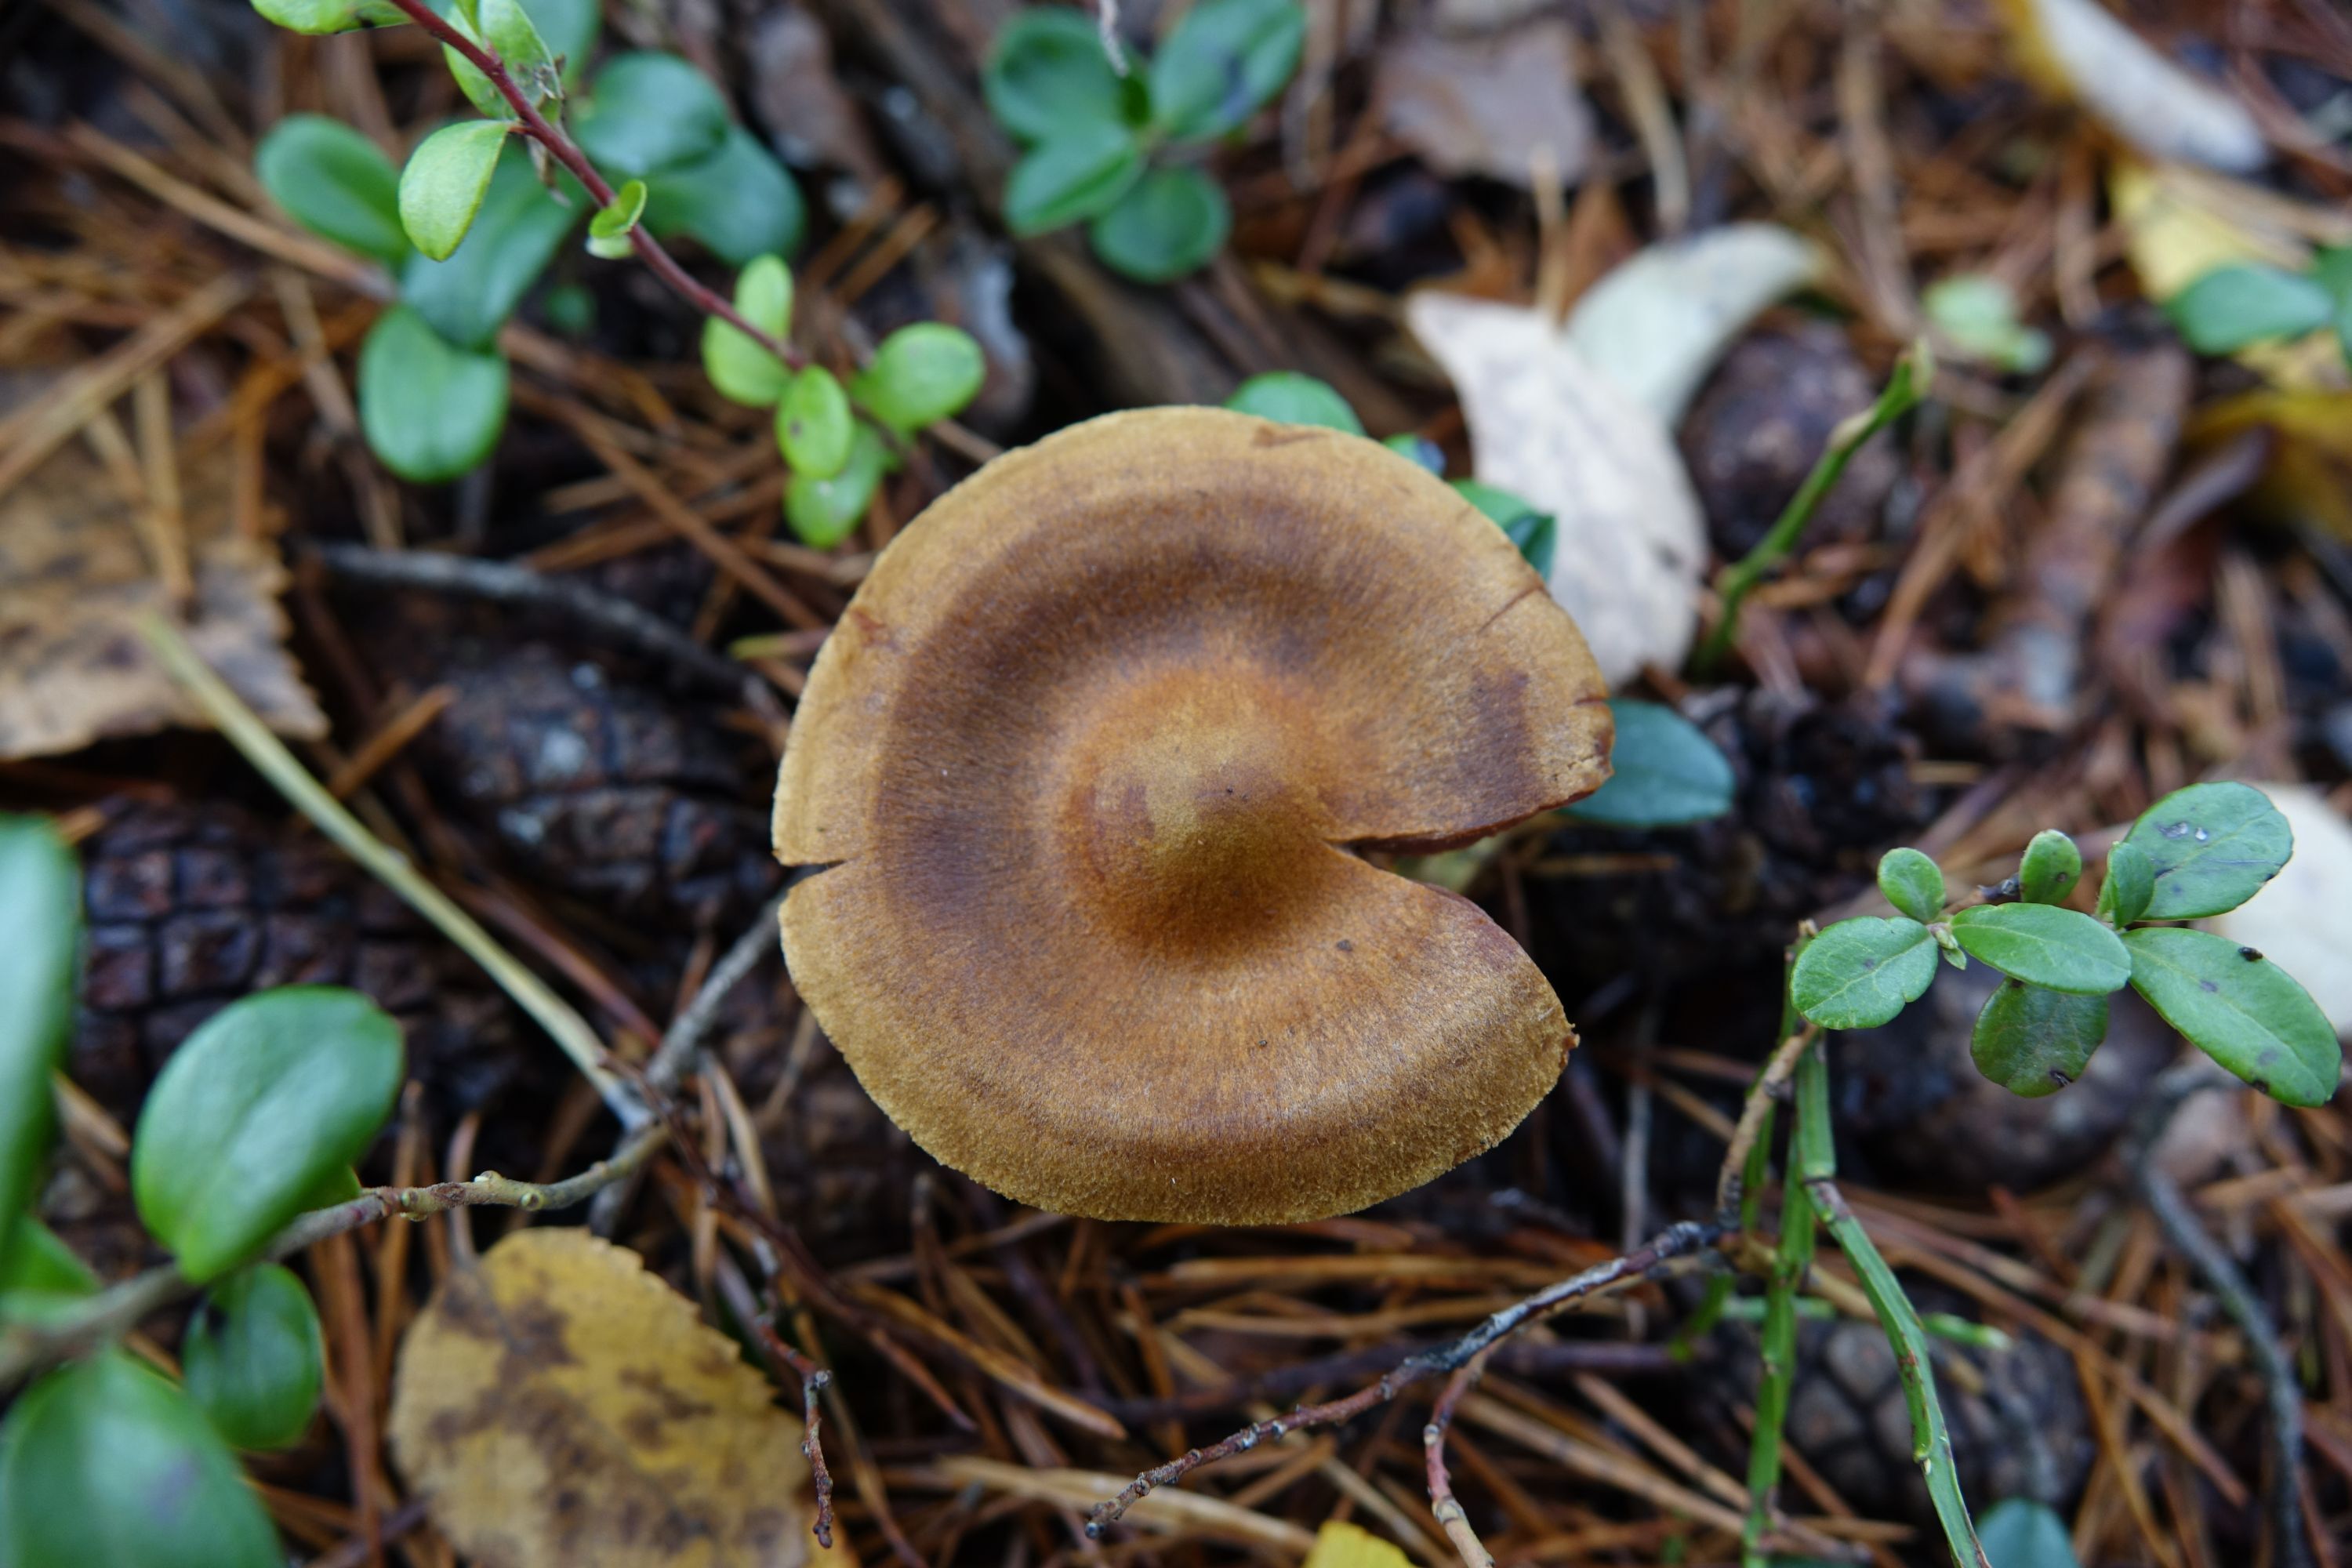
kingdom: Fungi
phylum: Basidiomycota
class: Agaricomycetes
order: Agaricales
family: Cortinariaceae
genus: Cortinarius
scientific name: Cortinarius semisanguineus
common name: Surprise webcap
